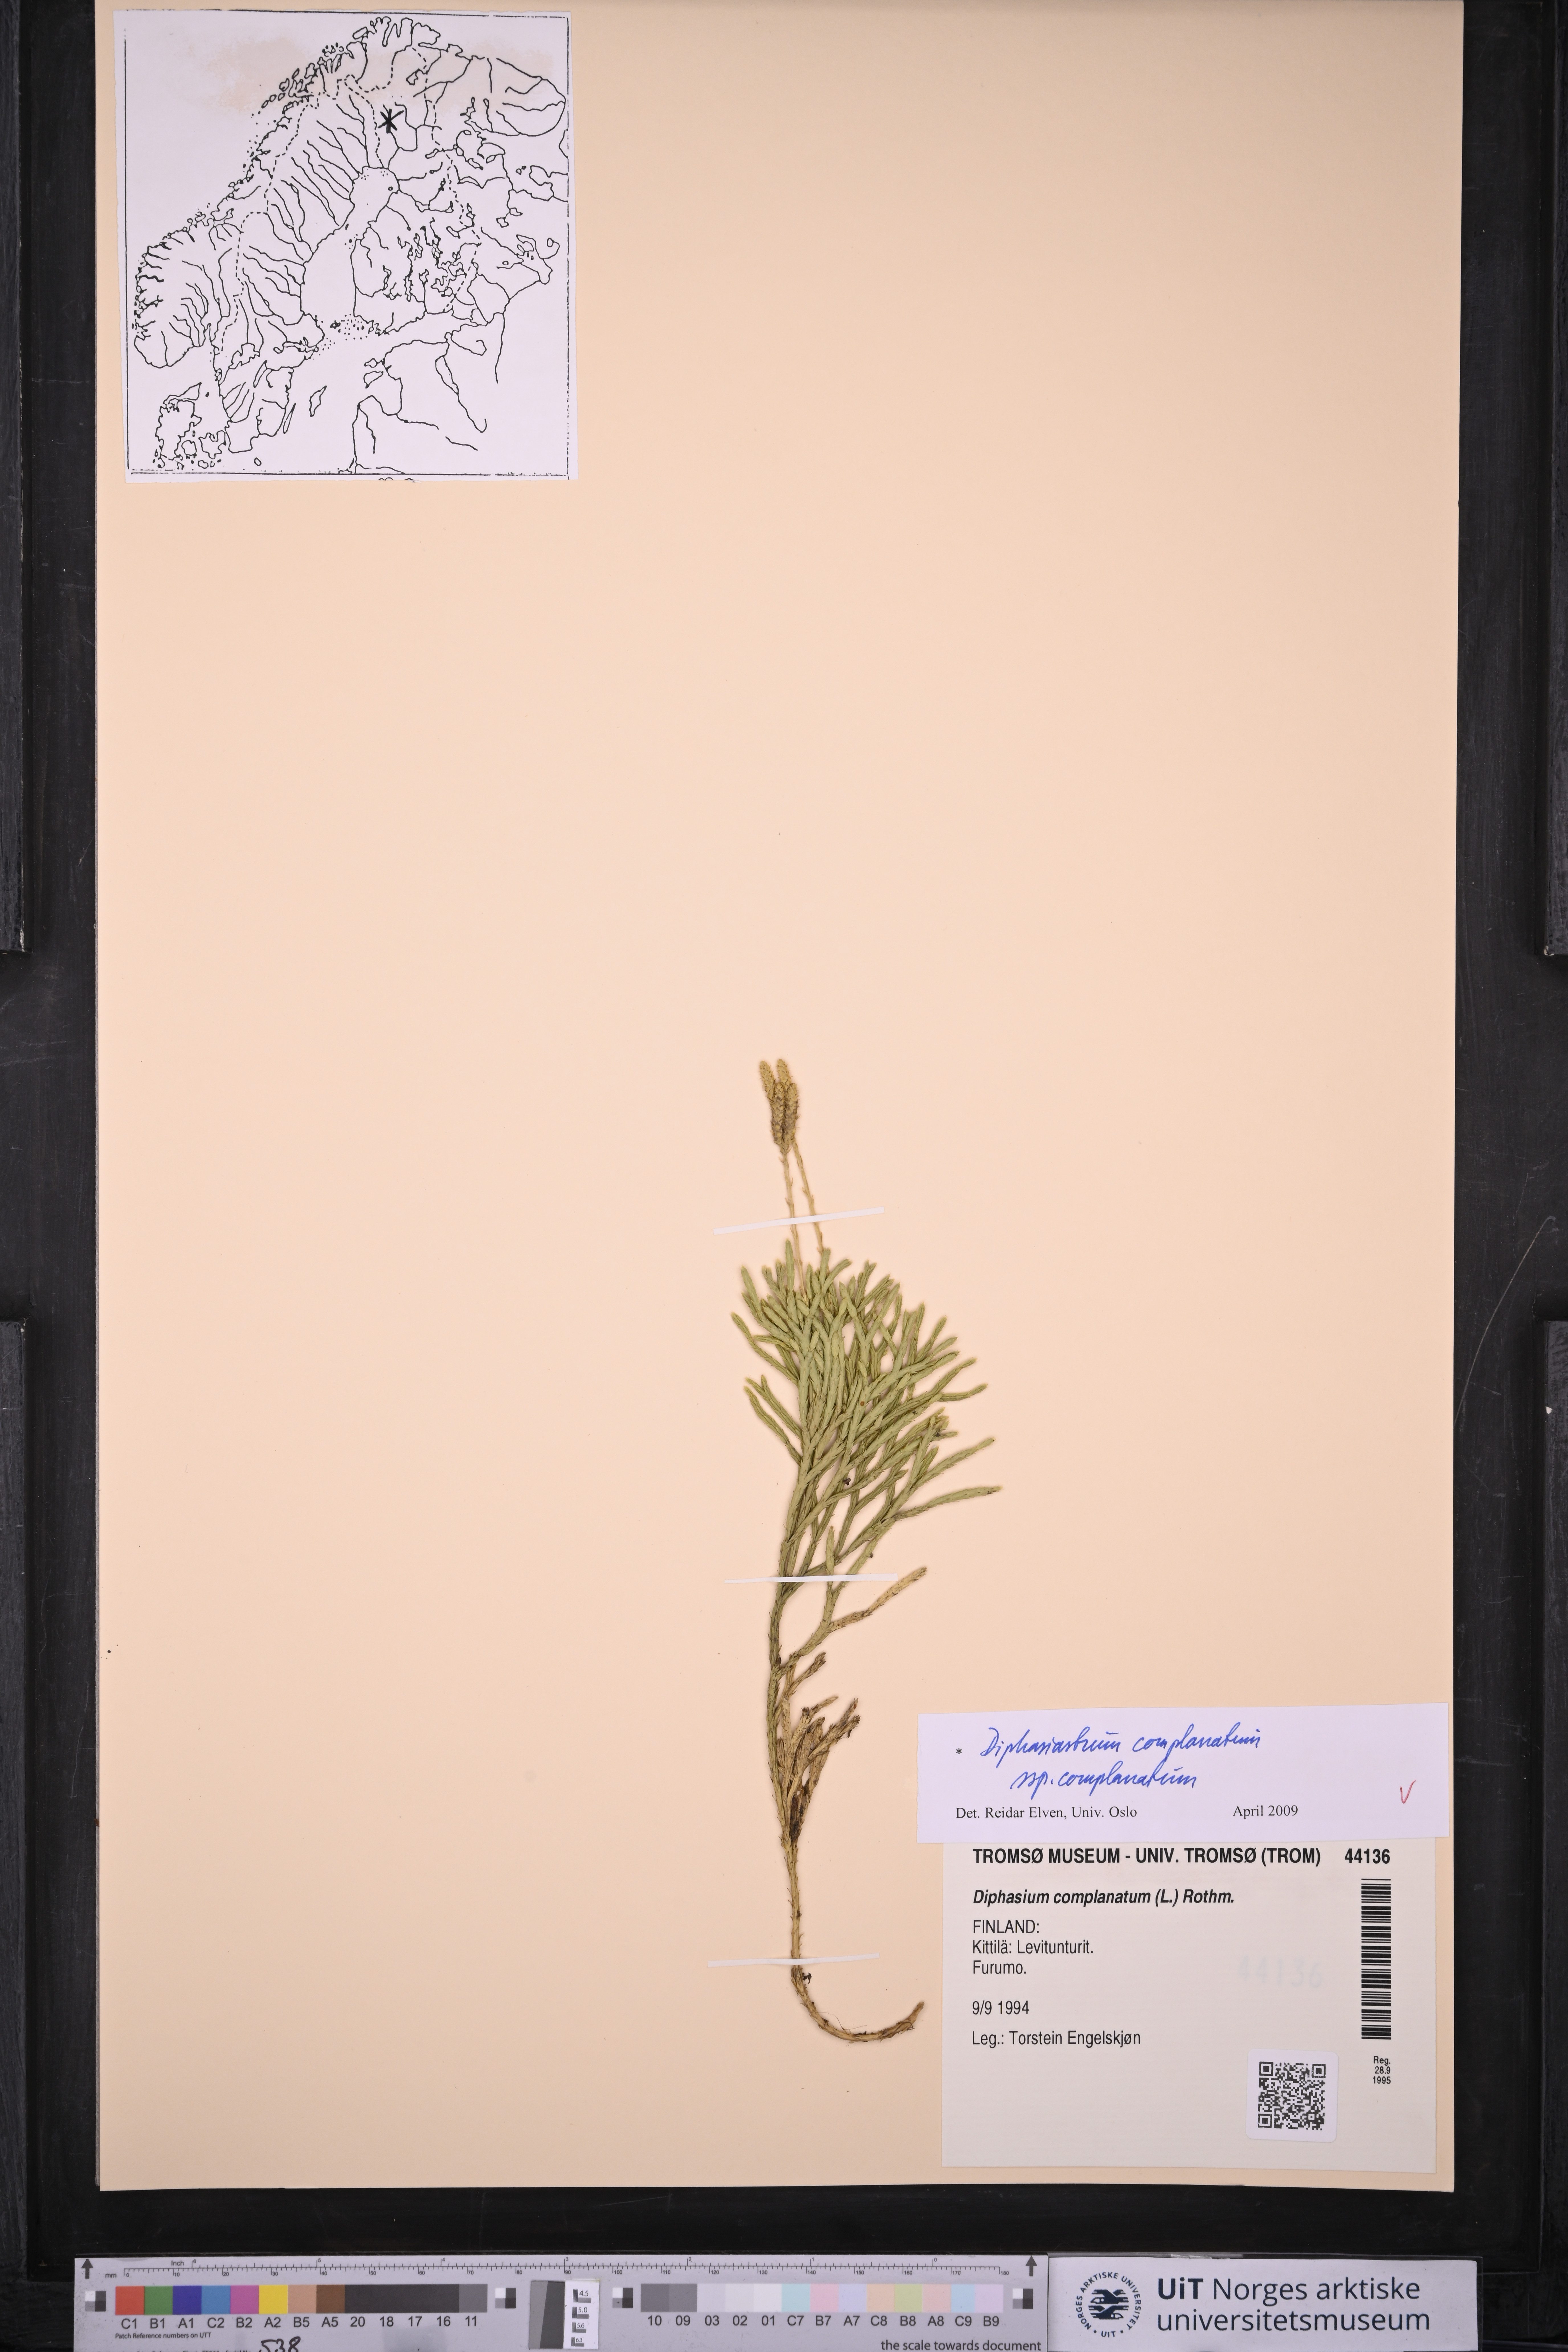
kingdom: Plantae
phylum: Tracheophyta
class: Lycopodiopsida
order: Lycopodiales
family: Lycopodiaceae
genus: Diphasiastrum
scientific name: Diphasiastrum complanatum
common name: Northern running-pine
